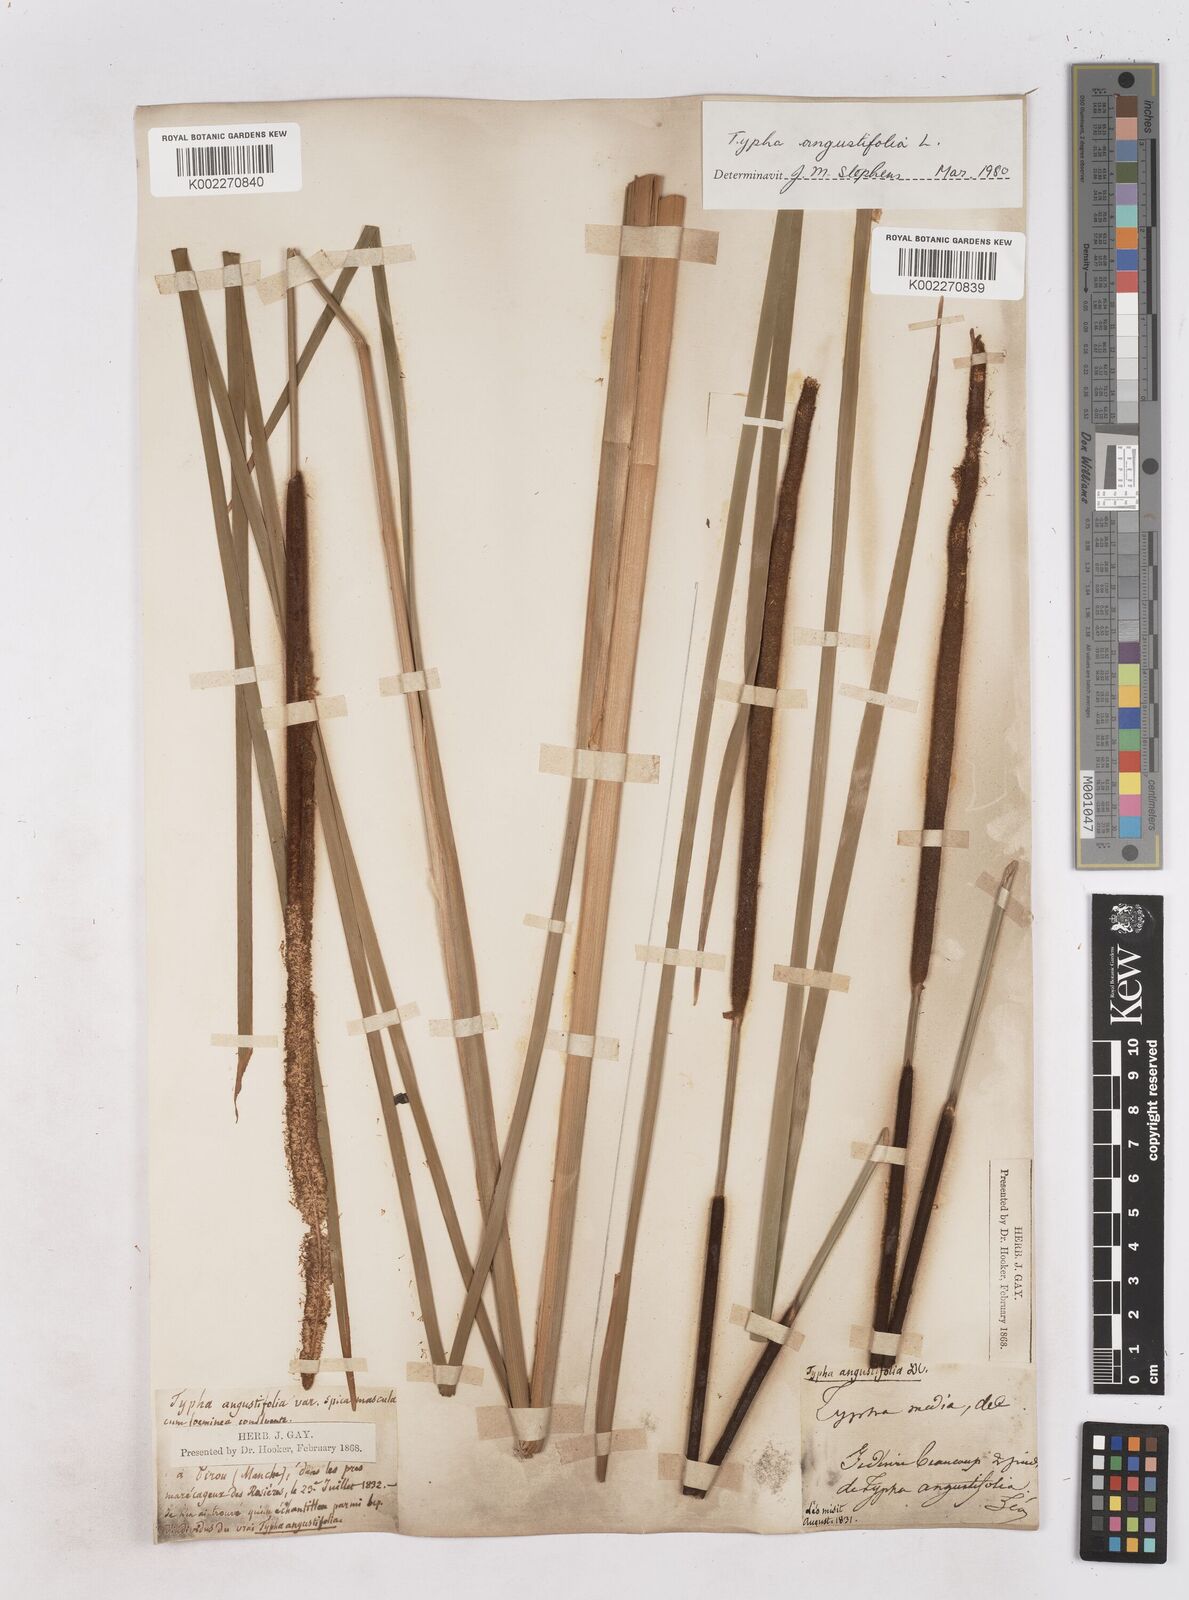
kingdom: Plantae
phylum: Tracheophyta
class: Liliopsida
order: Poales
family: Typhaceae
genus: Typha
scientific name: Typha angustifolia
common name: Lesser bulrush
